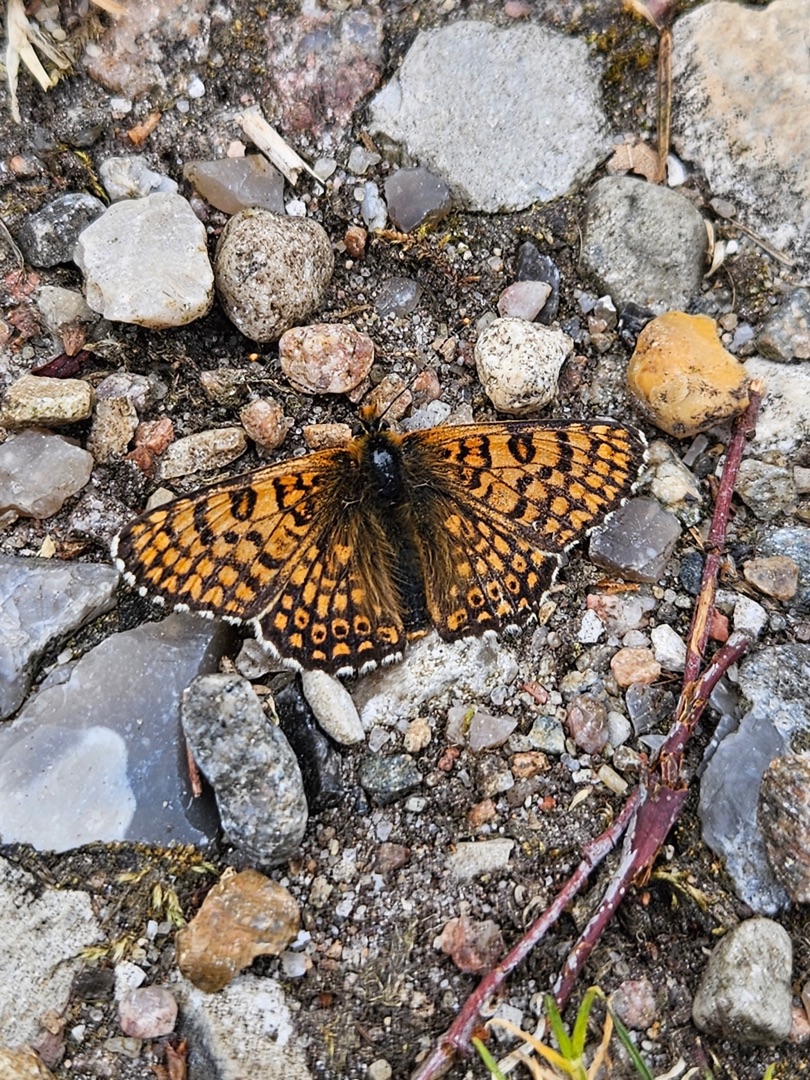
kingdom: Animalia
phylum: Arthropoda
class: Insecta
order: Lepidoptera
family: Nymphalidae
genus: Melitaea
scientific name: Melitaea cinxia
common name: Okkergul pletvinge
